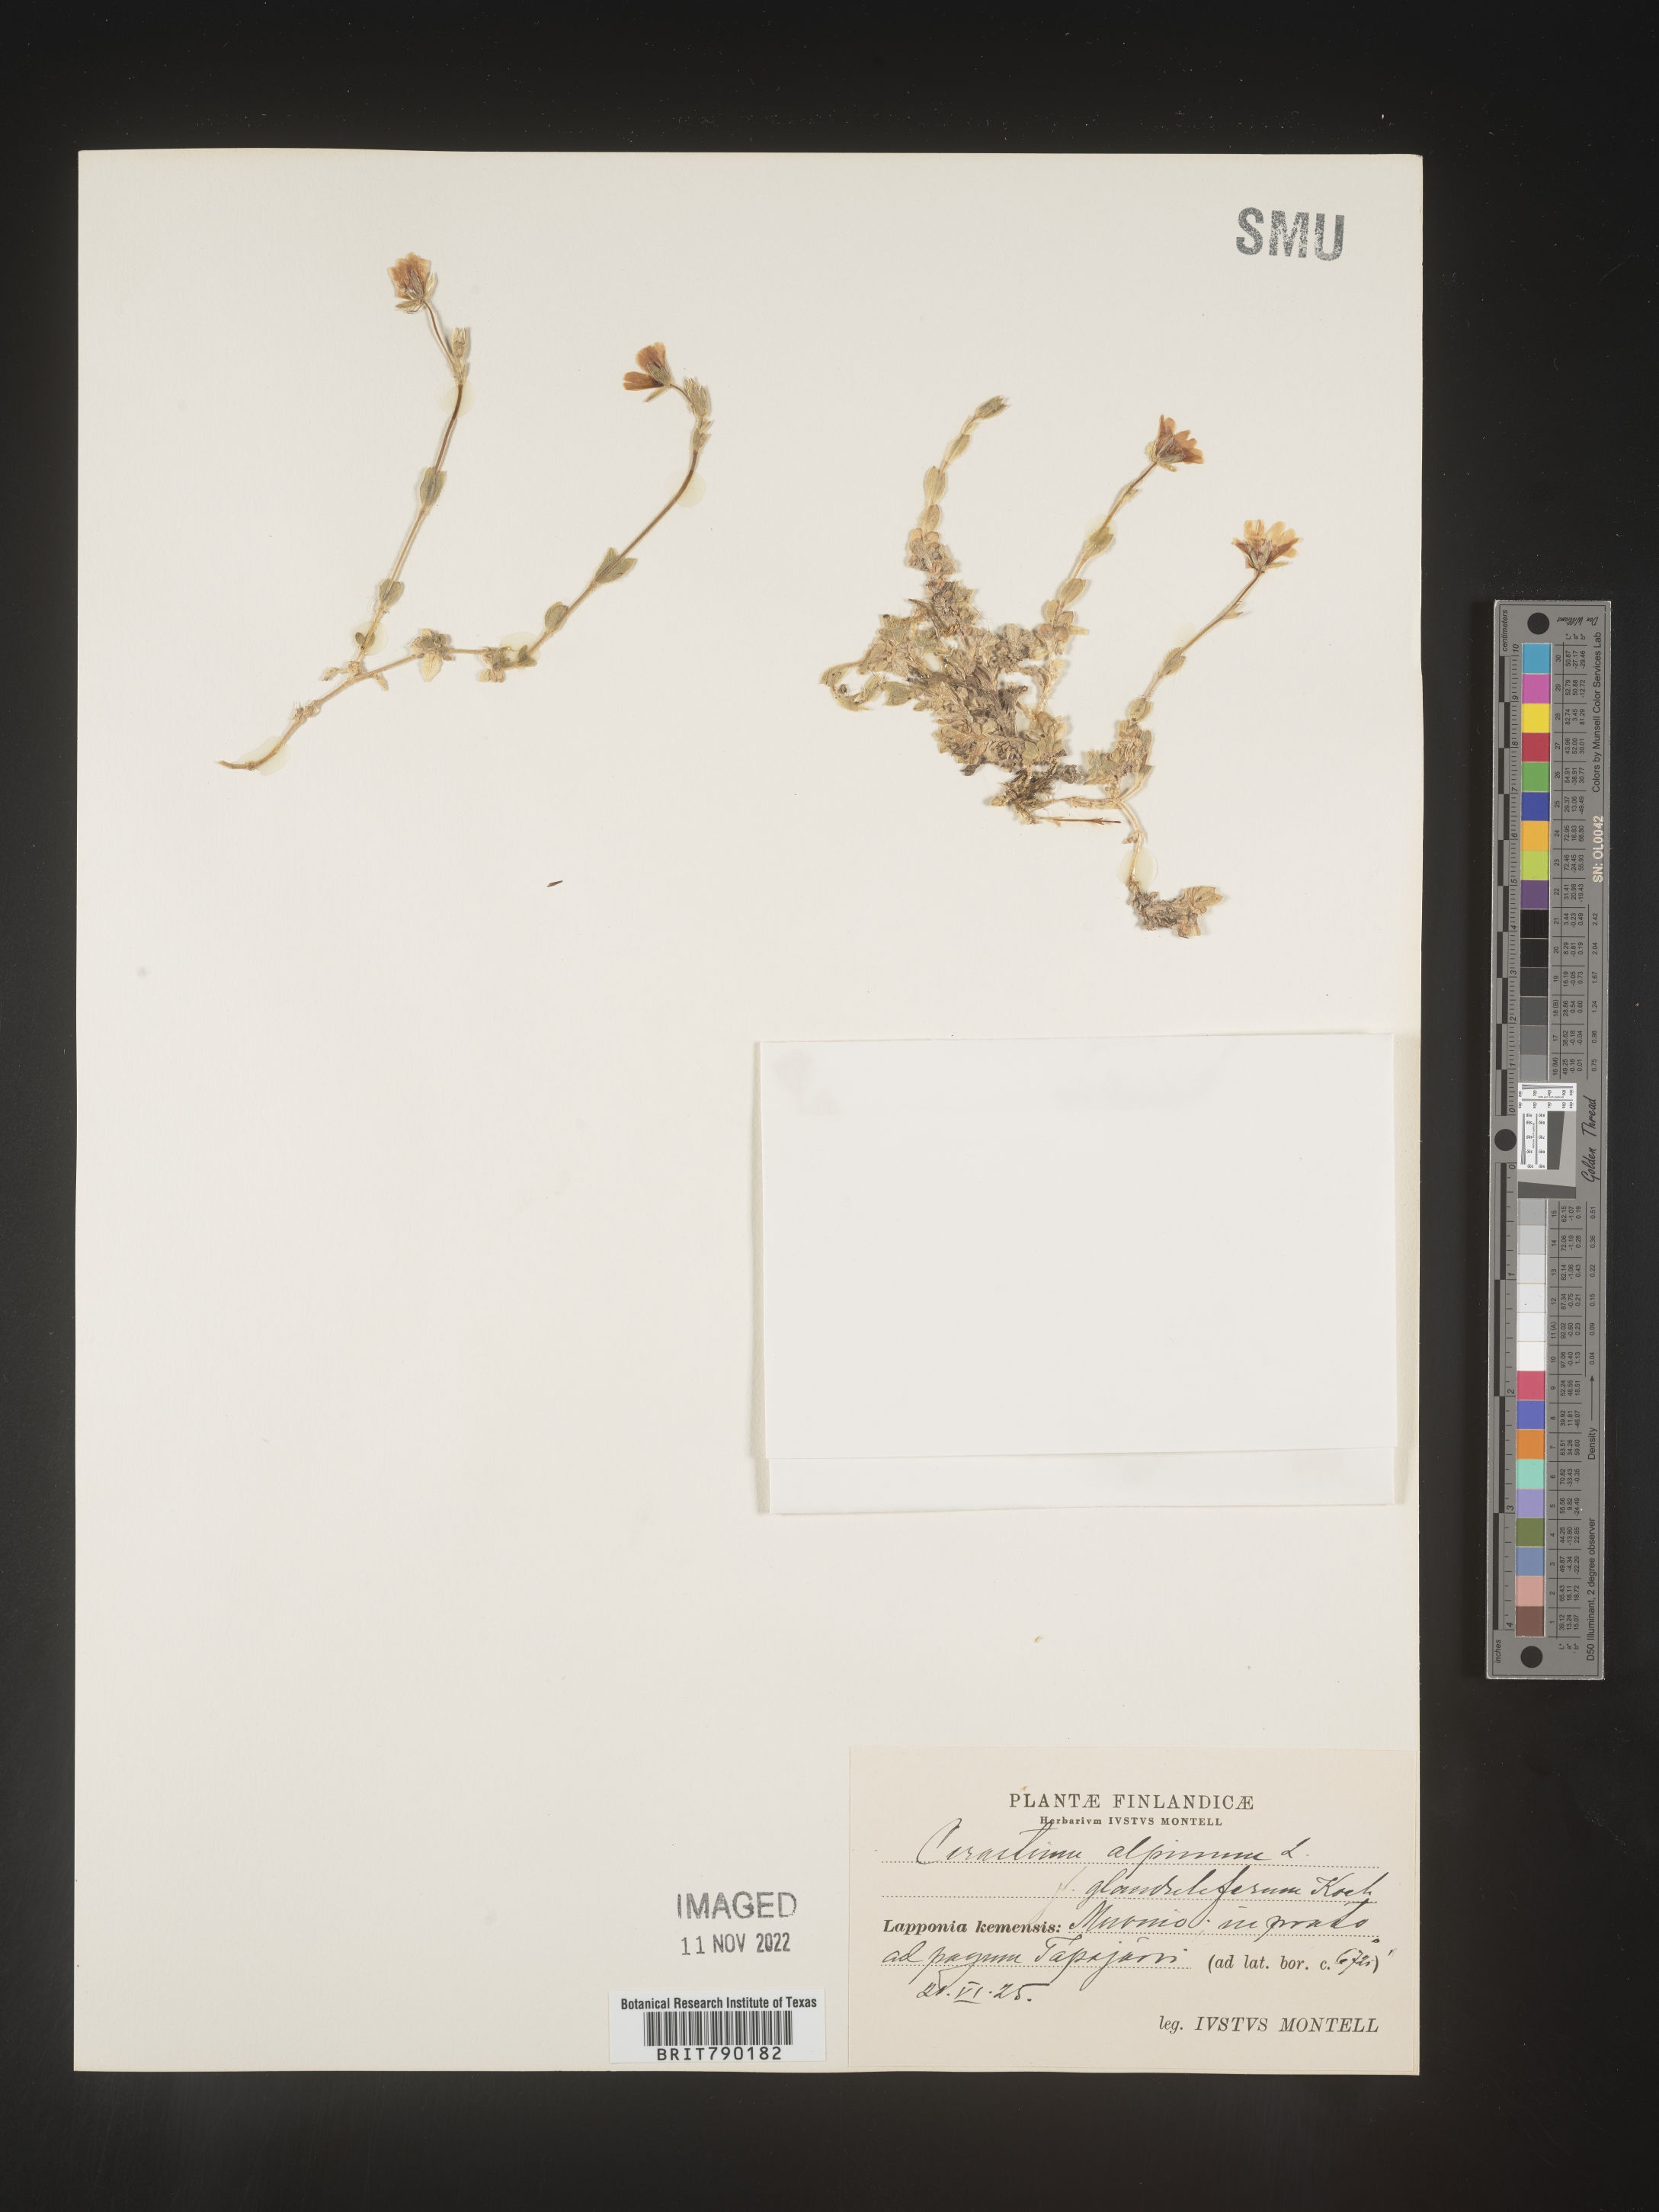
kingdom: Plantae
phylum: Tracheophyta
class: Magnoliopsida
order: Caryophyllales
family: Caryophyllaceae
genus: Cerastium
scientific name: Cerastium
